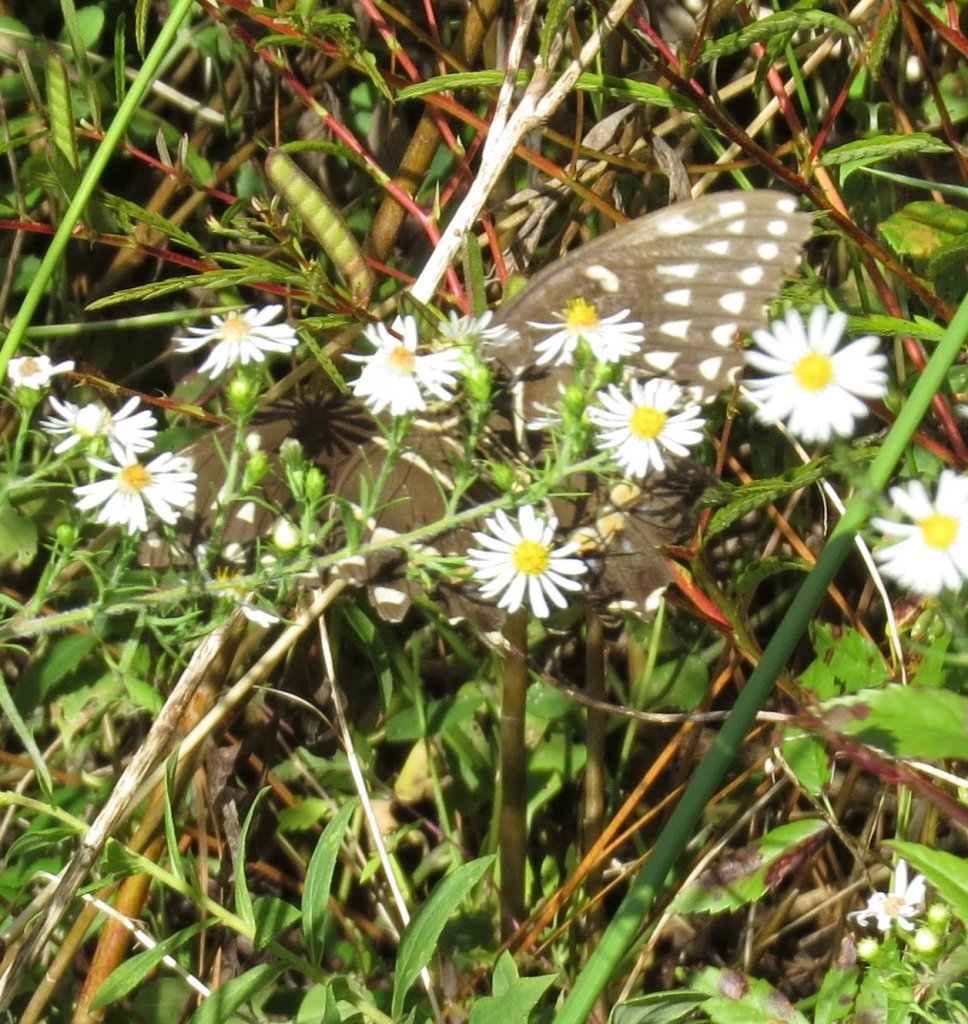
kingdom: Animalia
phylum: Arthropoda
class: Insecta
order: Lepidoptera
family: Papilionidae
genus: Pterourus
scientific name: Pterourus palamedes
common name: Palamedes Swallowtail
